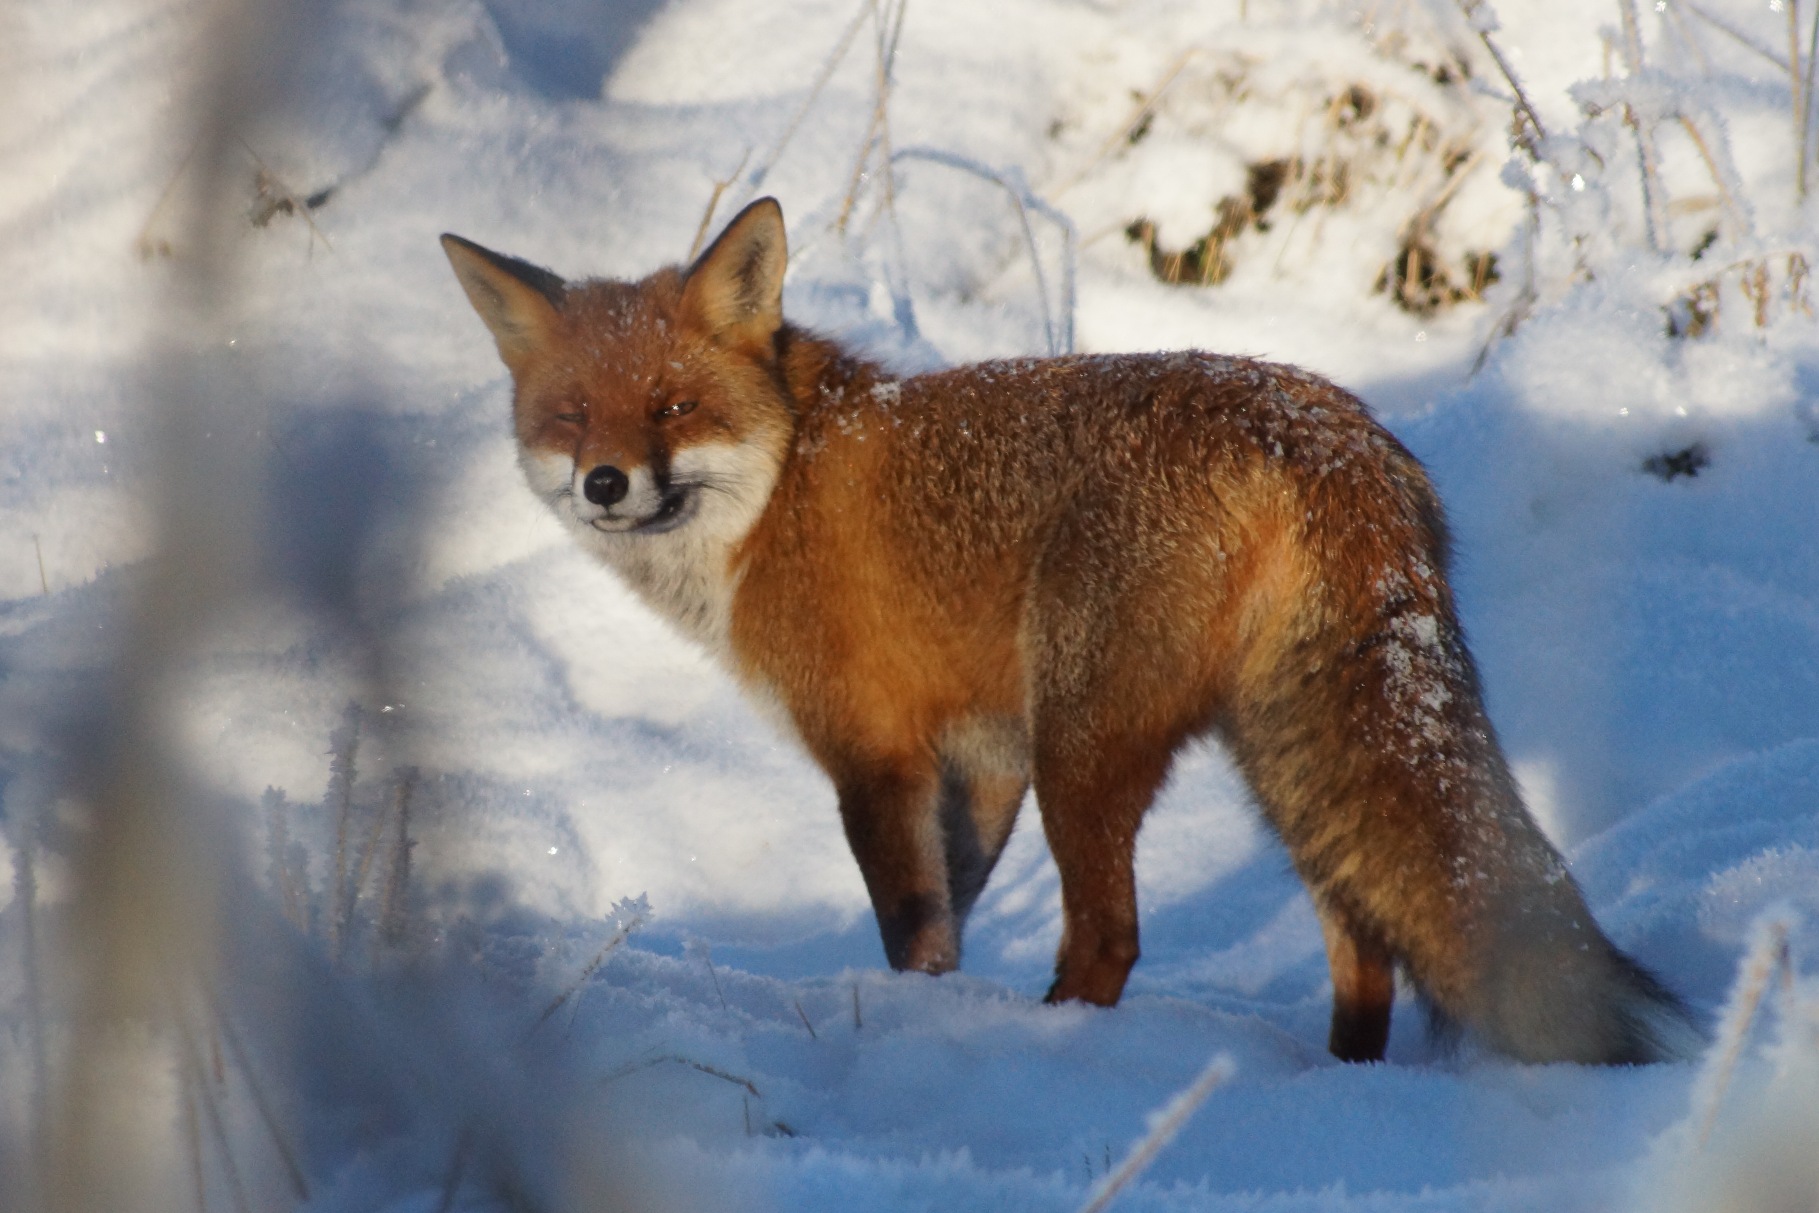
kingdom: Animalia
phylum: Chordata
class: Mammalia
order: Carnivora
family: Canidae
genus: Vulpes
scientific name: Vulpes vulpes
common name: Ræv
